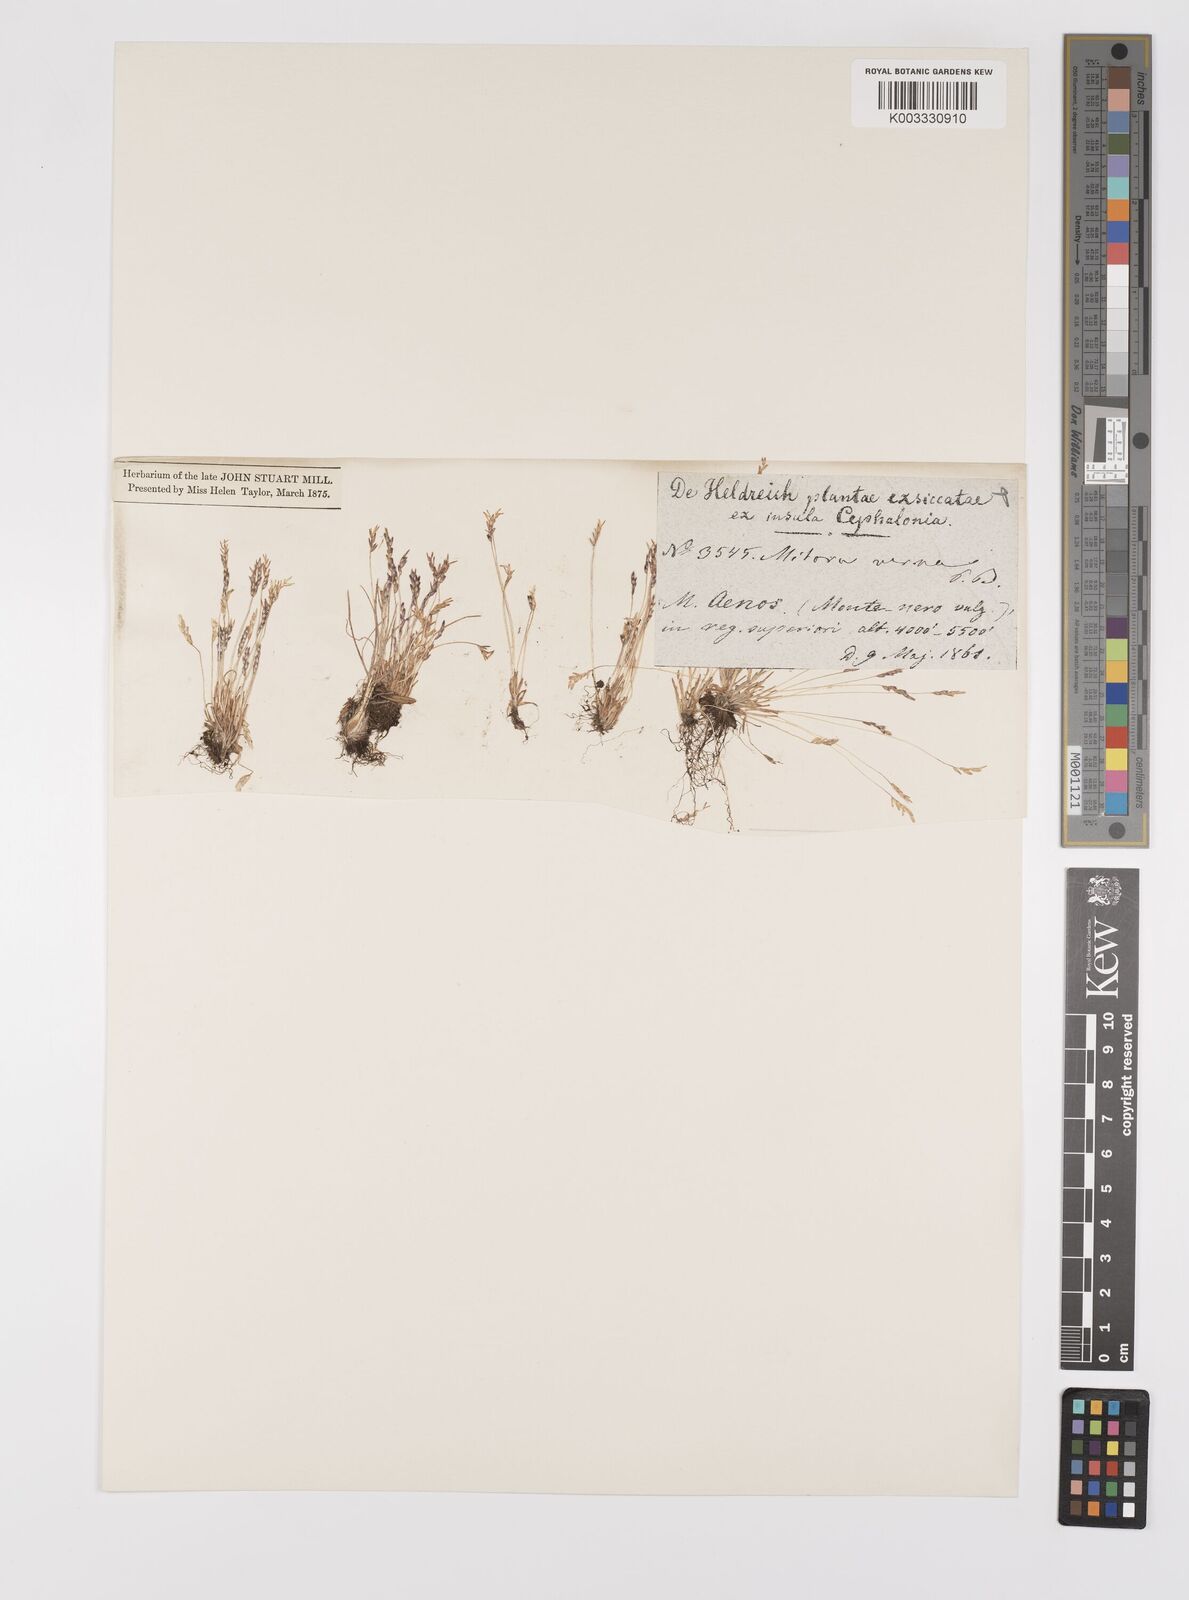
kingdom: Plantae
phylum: Tracheophyta
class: Liliopsida
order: Poales
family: Poaceae
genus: Mibora
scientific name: Mibora minima
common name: Early sand-grass
